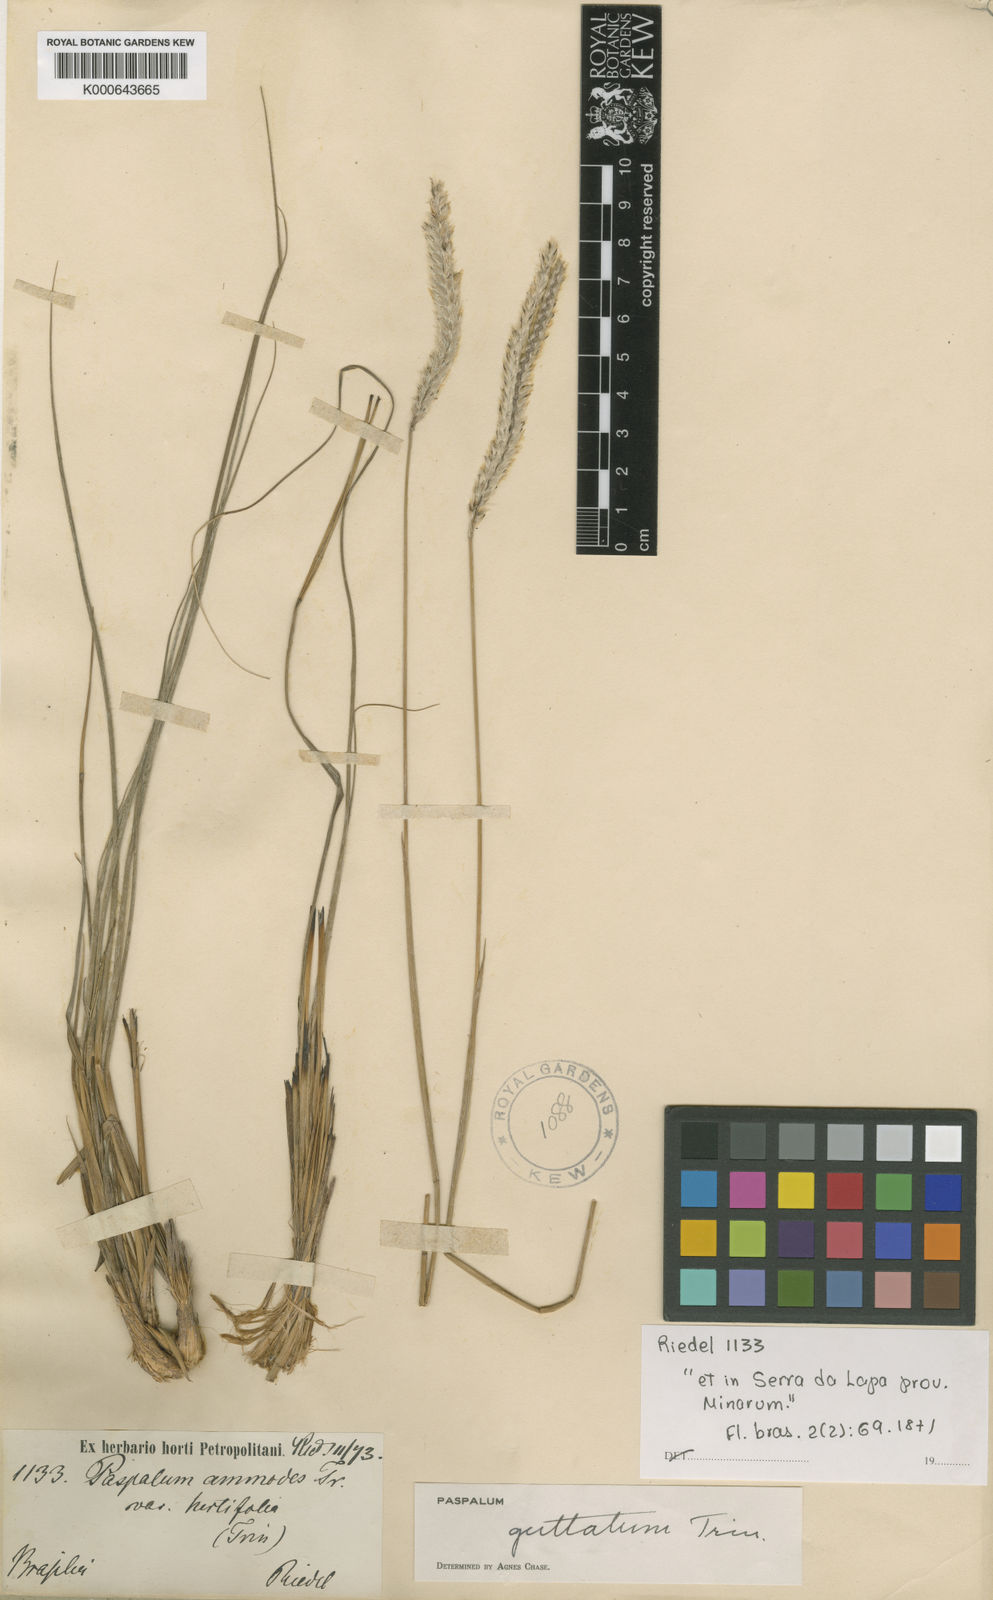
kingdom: Plantae
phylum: Tracheophyta
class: Liliopsida
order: Poales
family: Poaceae
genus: Paspalum
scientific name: Paspalum guttatum
